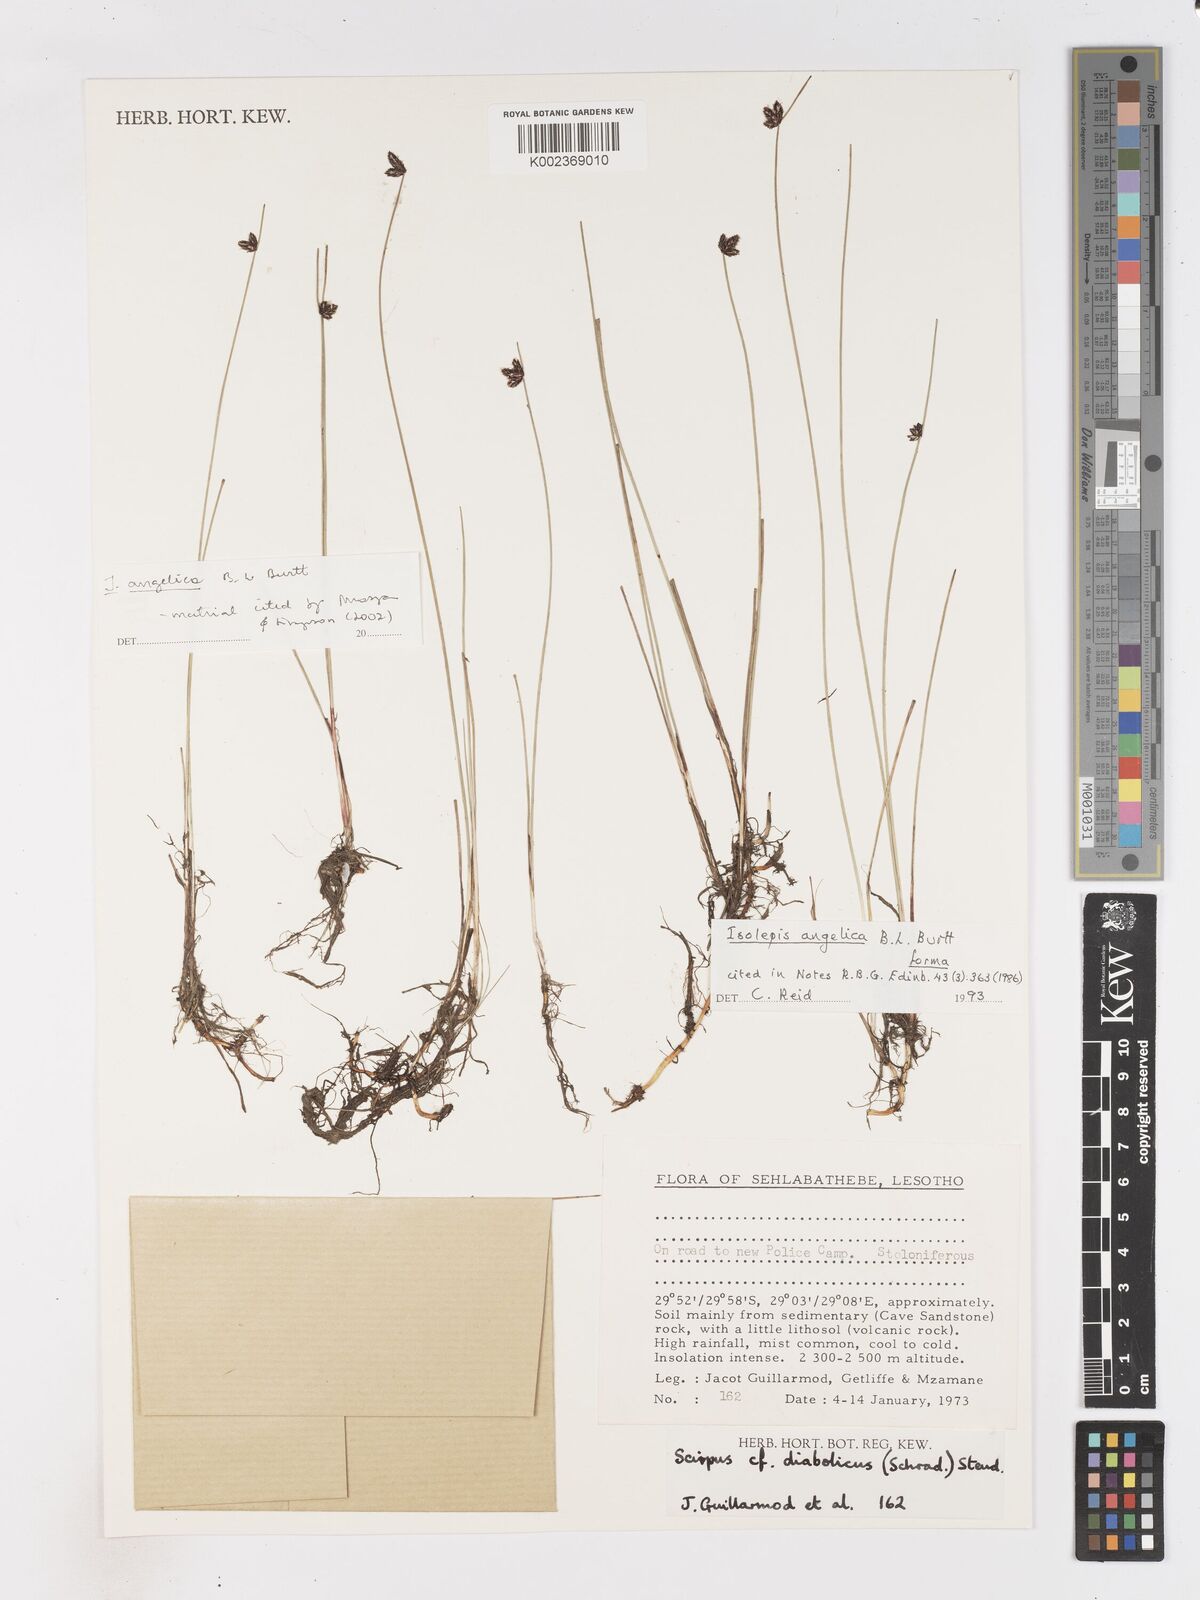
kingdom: Plantae
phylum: Tracheophyta
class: Liliopsida
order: Poales
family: Cyperaceae
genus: Isolepis
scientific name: Isolepis angelica
